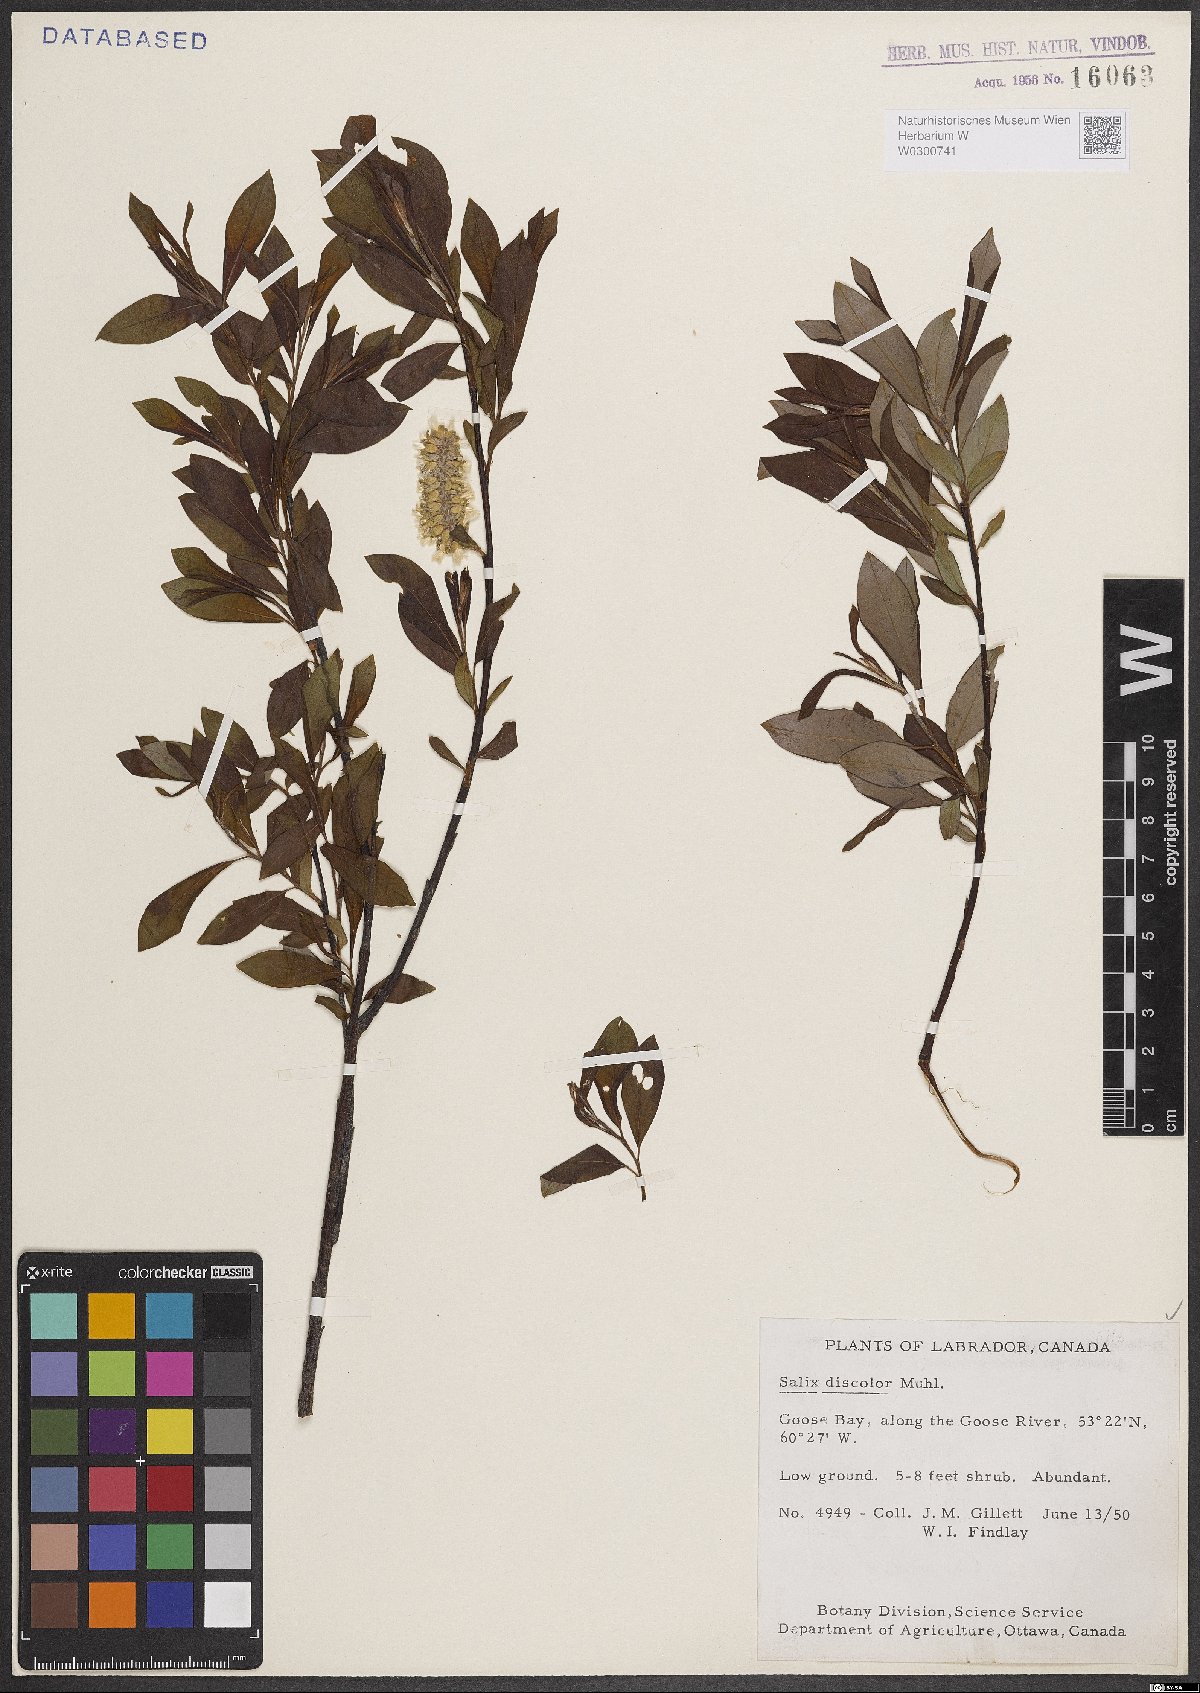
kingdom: Plantae
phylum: Tracheophyta
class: Magnoliopsida
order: Malpighiales
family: Salicaceae
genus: Salix
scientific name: Salix discolor
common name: Glaucous willow
